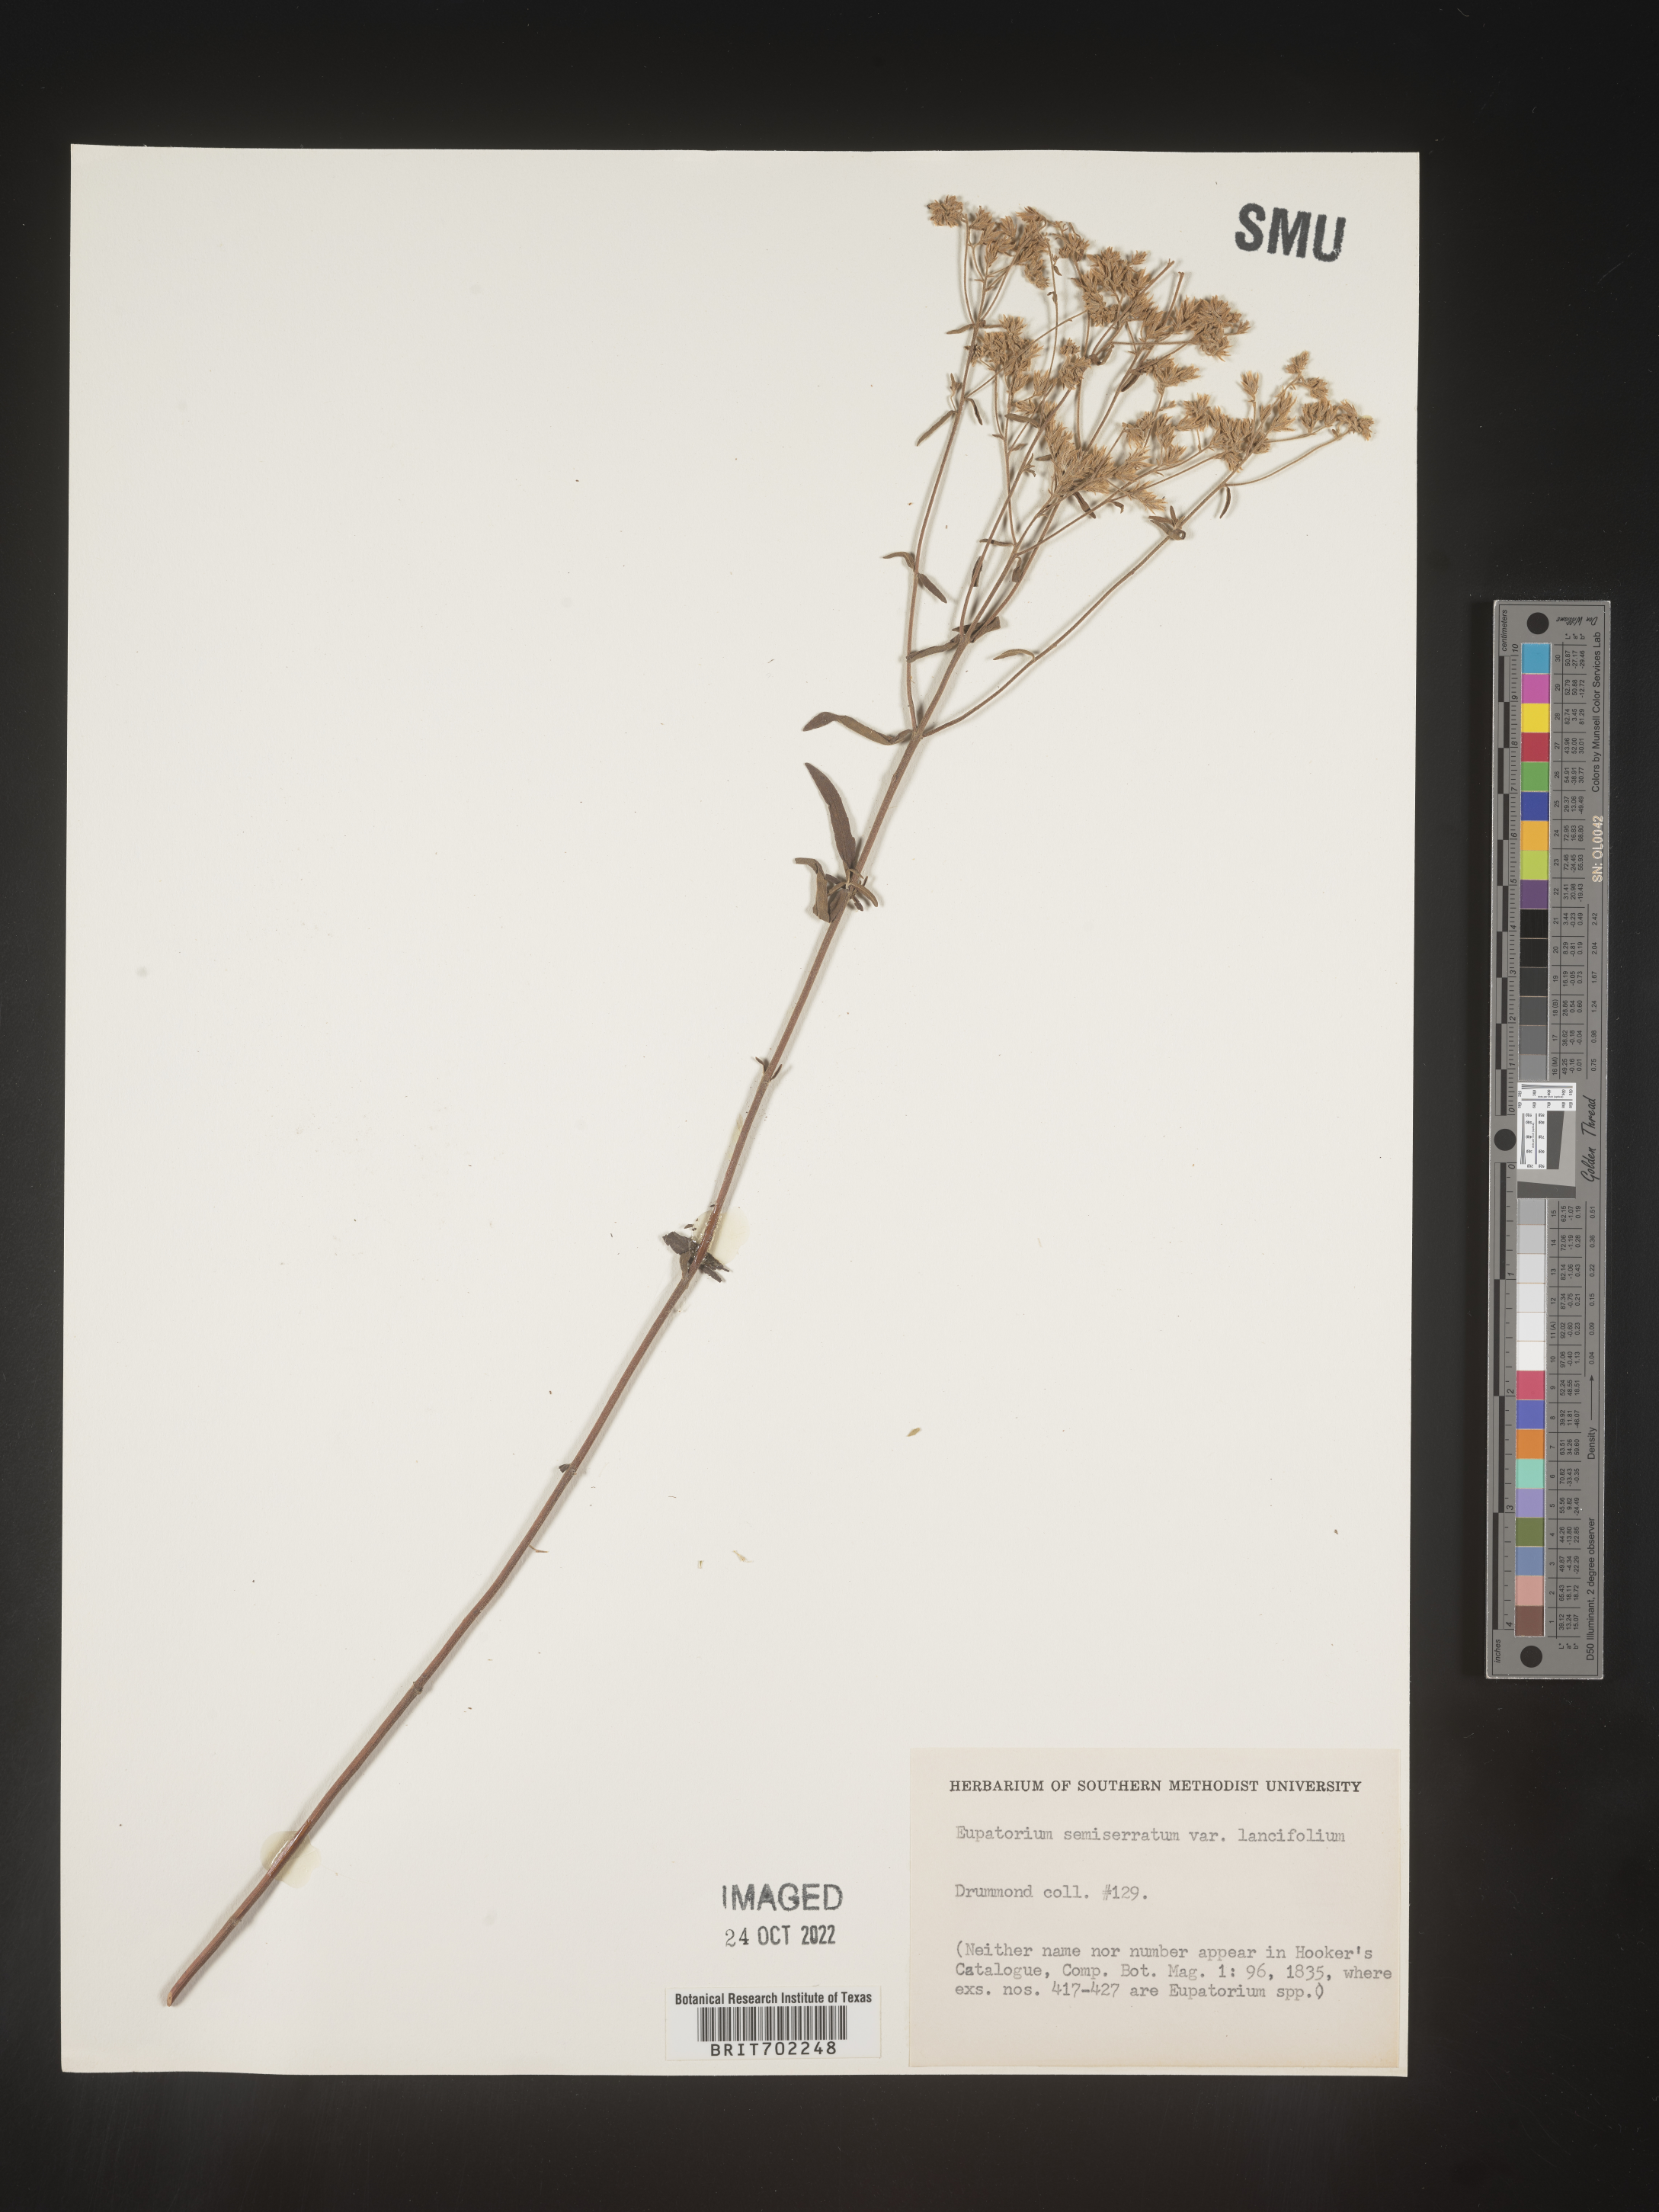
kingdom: Plantae
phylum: Tracheophyta
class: Magnoliopsida
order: Asterales
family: Asteraceae
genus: Eupatorium
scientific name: Eupatorium lancifolium
